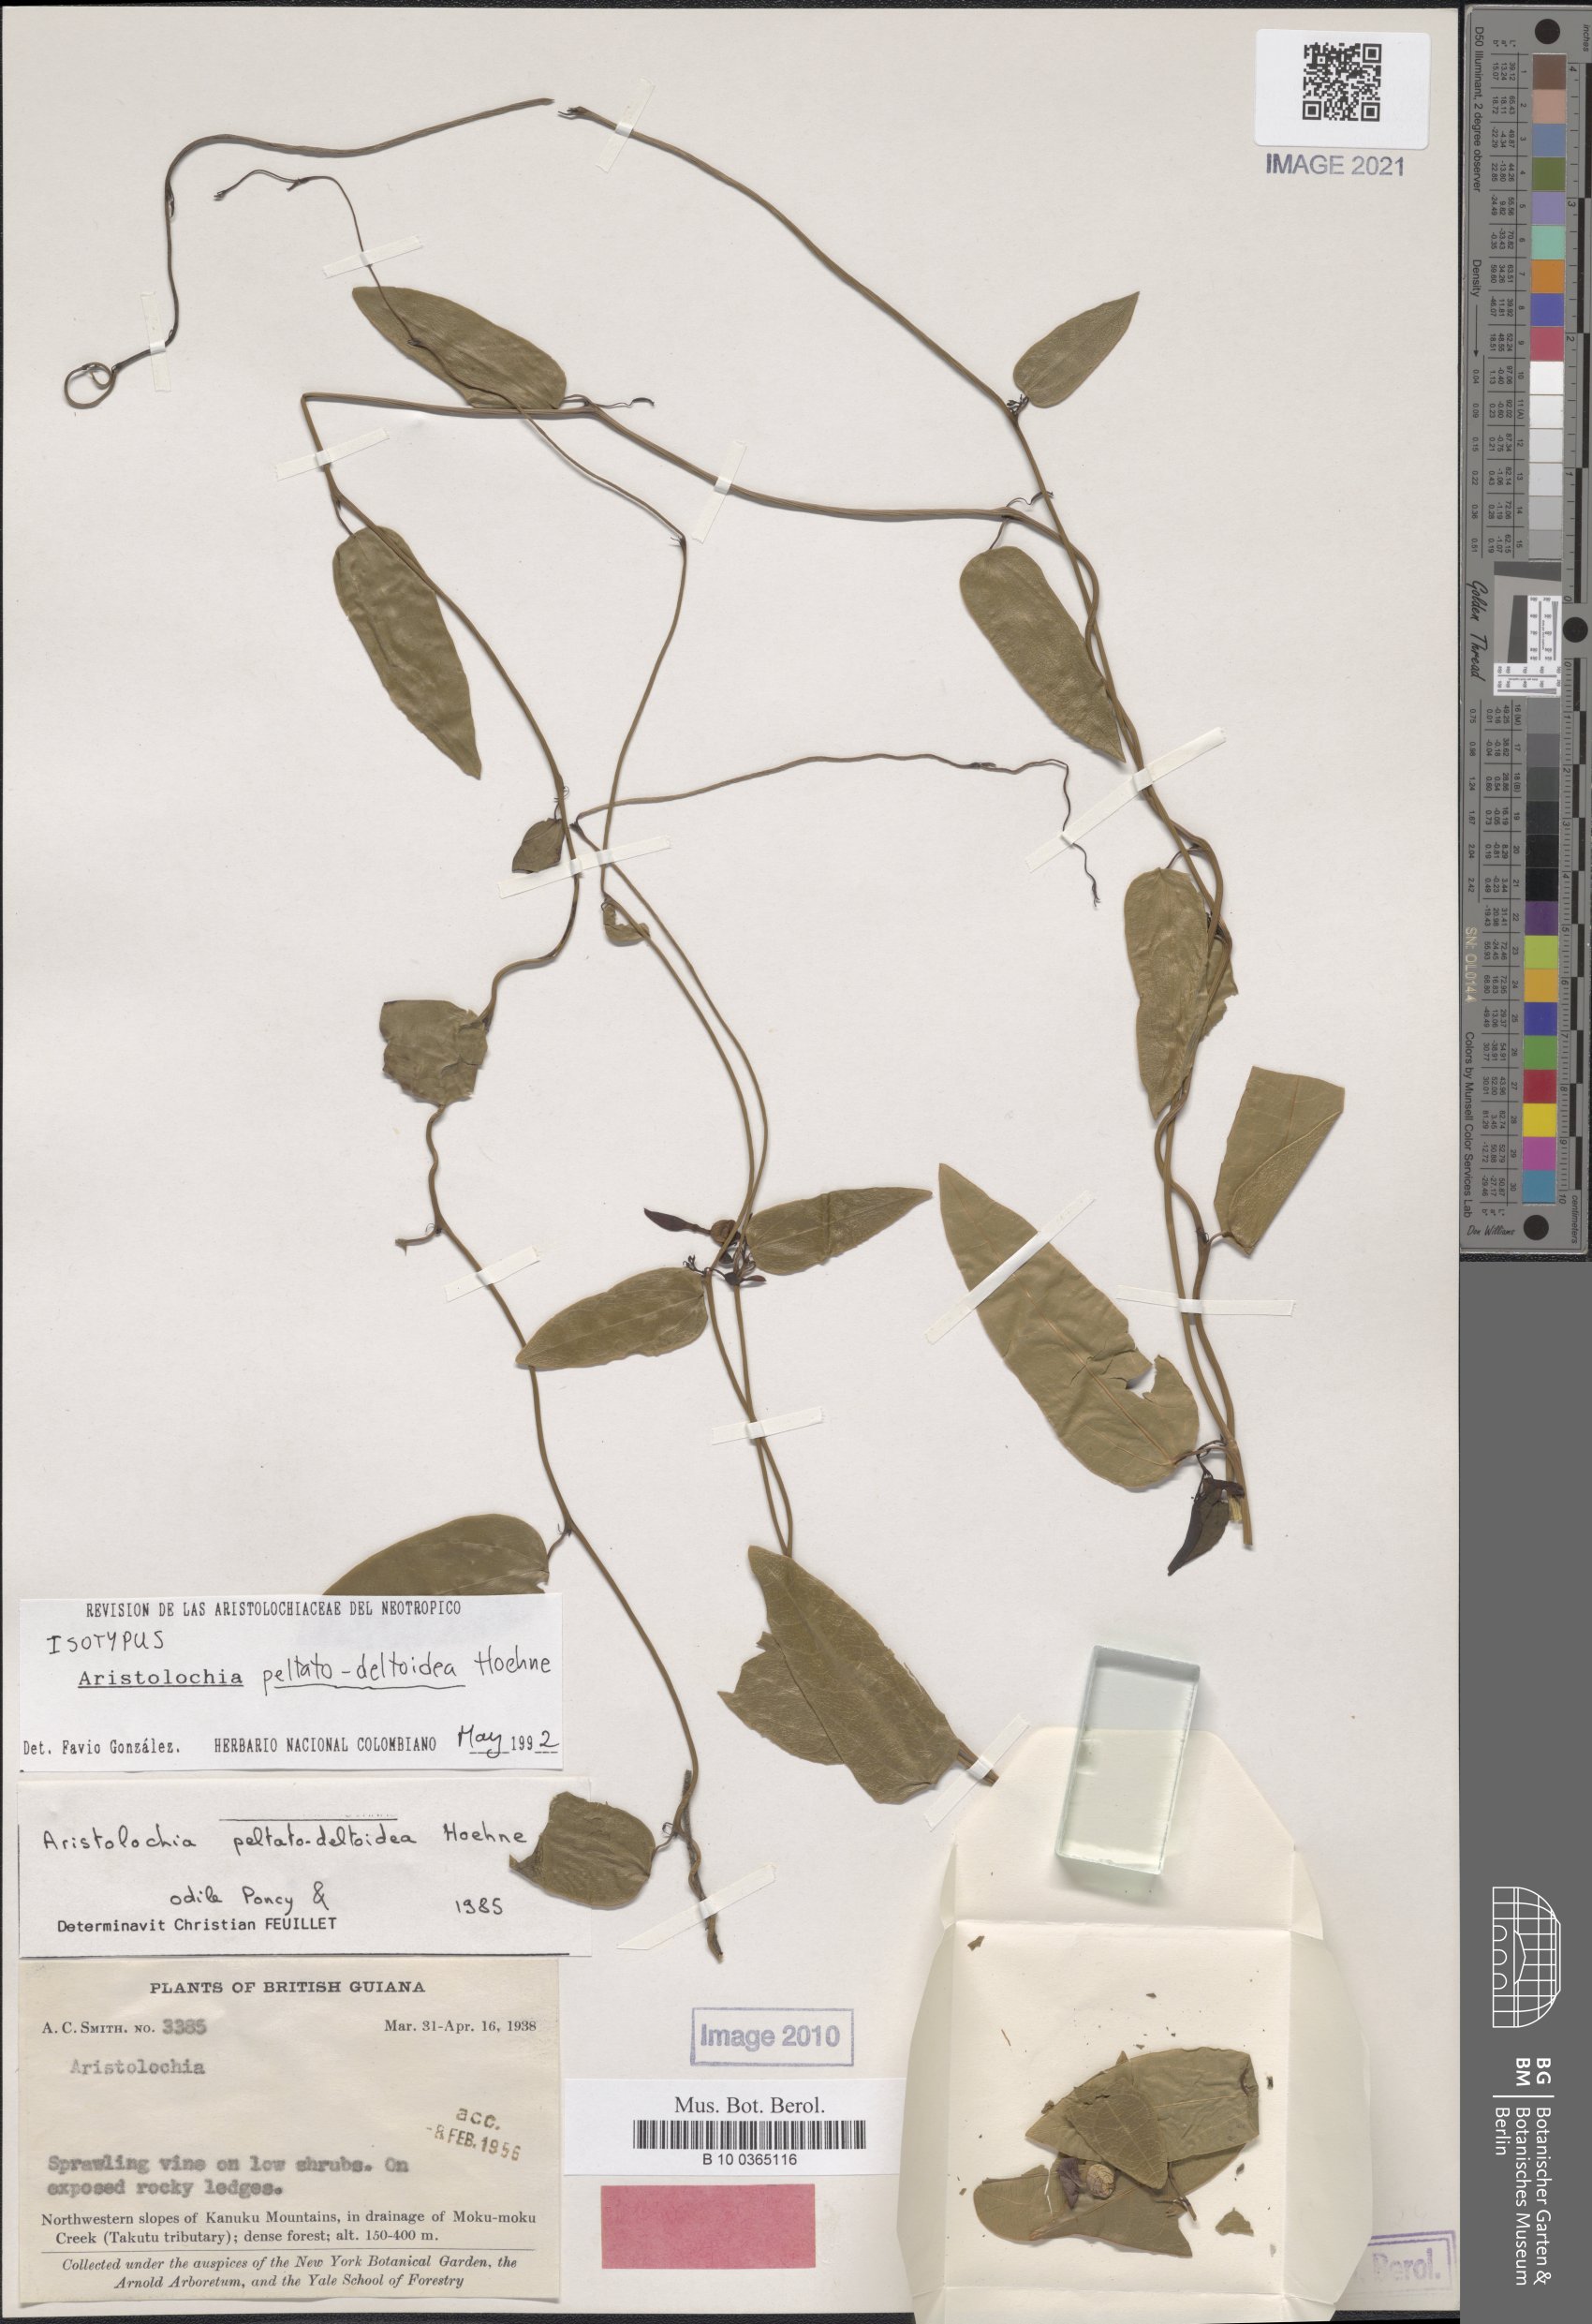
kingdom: Plantae
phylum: Tracheophyta
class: Magnoliopsida
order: Piperales
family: Aristolochiaceae
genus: Aristolochia
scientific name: Aristolochia peltatodeltoidea
